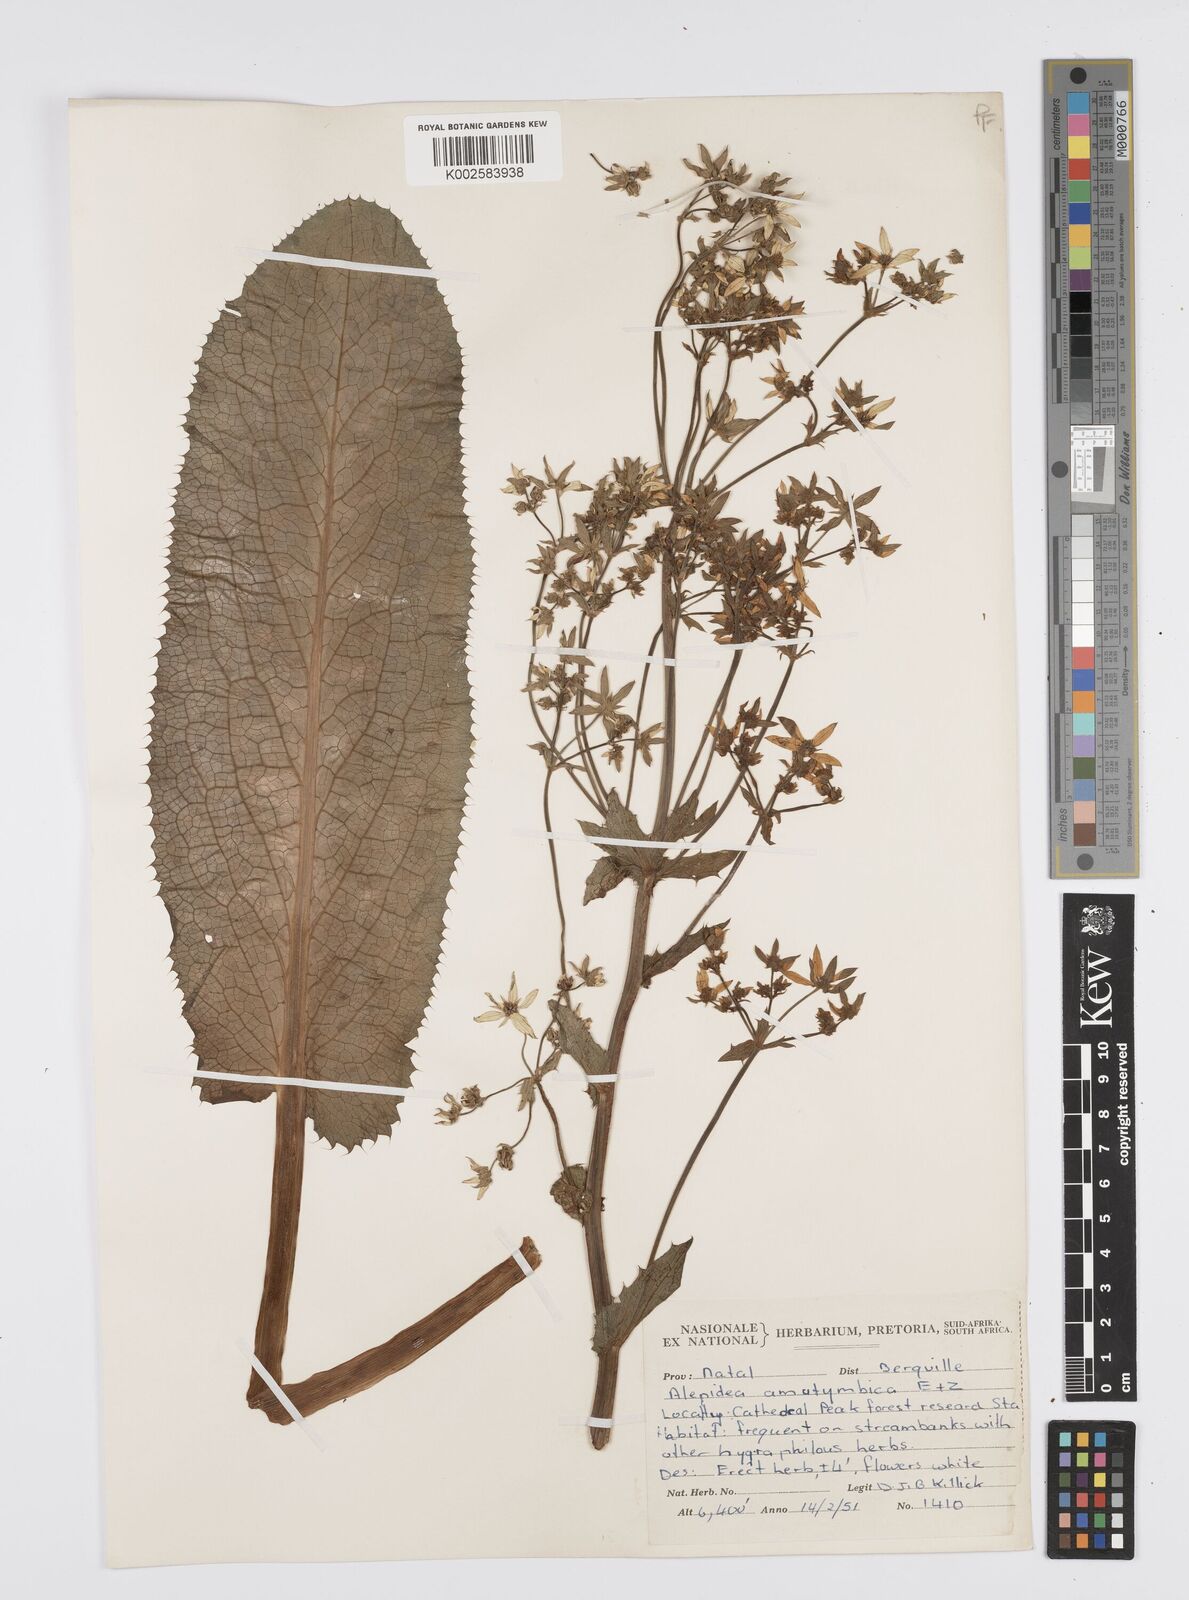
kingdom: Plantae
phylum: Tracheophyta
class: Magnoliopsida
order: Apiales
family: Apiaceae
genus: Alepidea
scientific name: Alepidea amatymbica
